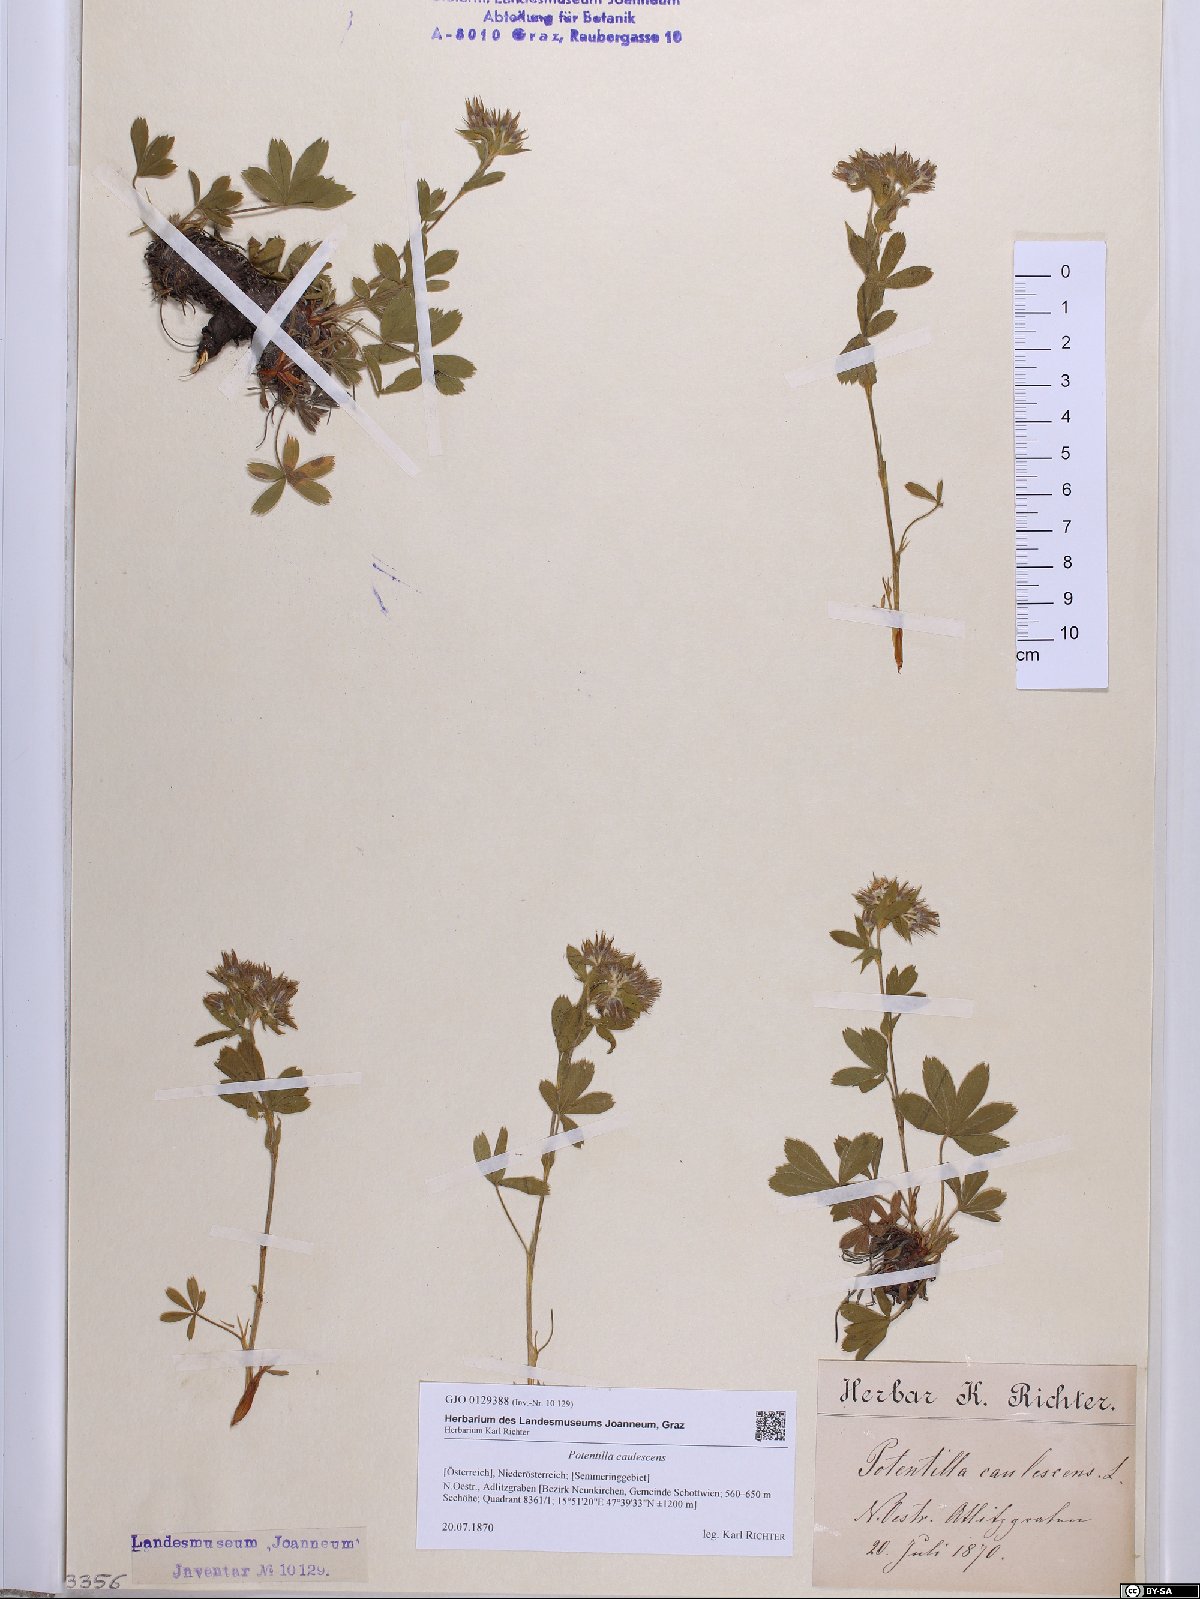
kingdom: Plantae
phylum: Tracheophyta
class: Magnoliopsida
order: Rosales
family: Rosaceae
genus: Potentilla
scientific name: Potentilla caulescens
